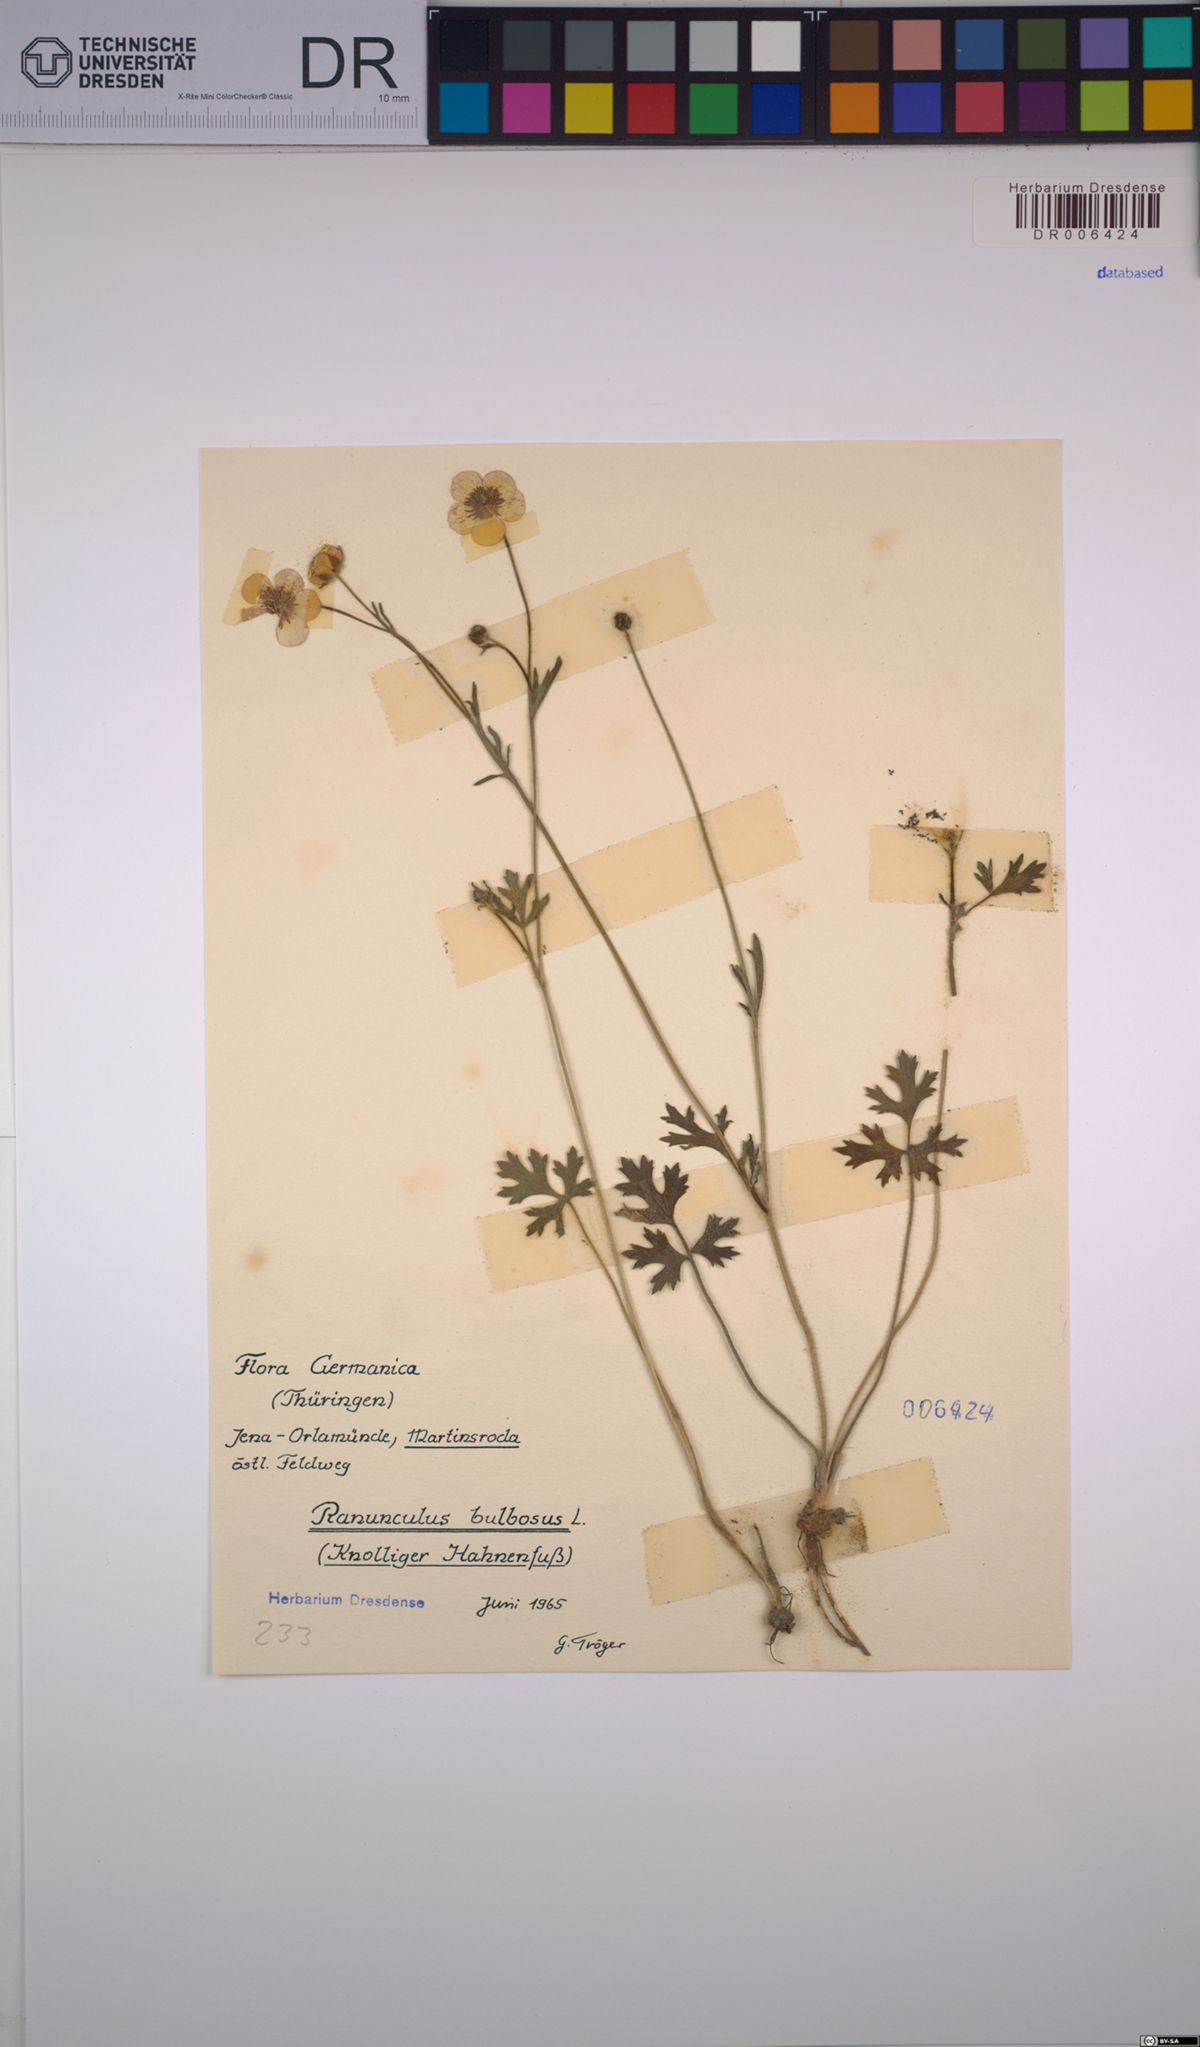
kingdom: Plantae
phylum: Tracheophyta
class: Magnoliopsida
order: Ranunculales
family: Ranunculaceae
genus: Ranunculus
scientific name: Ranunculus bulbosus
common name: Bulbous buttercup
